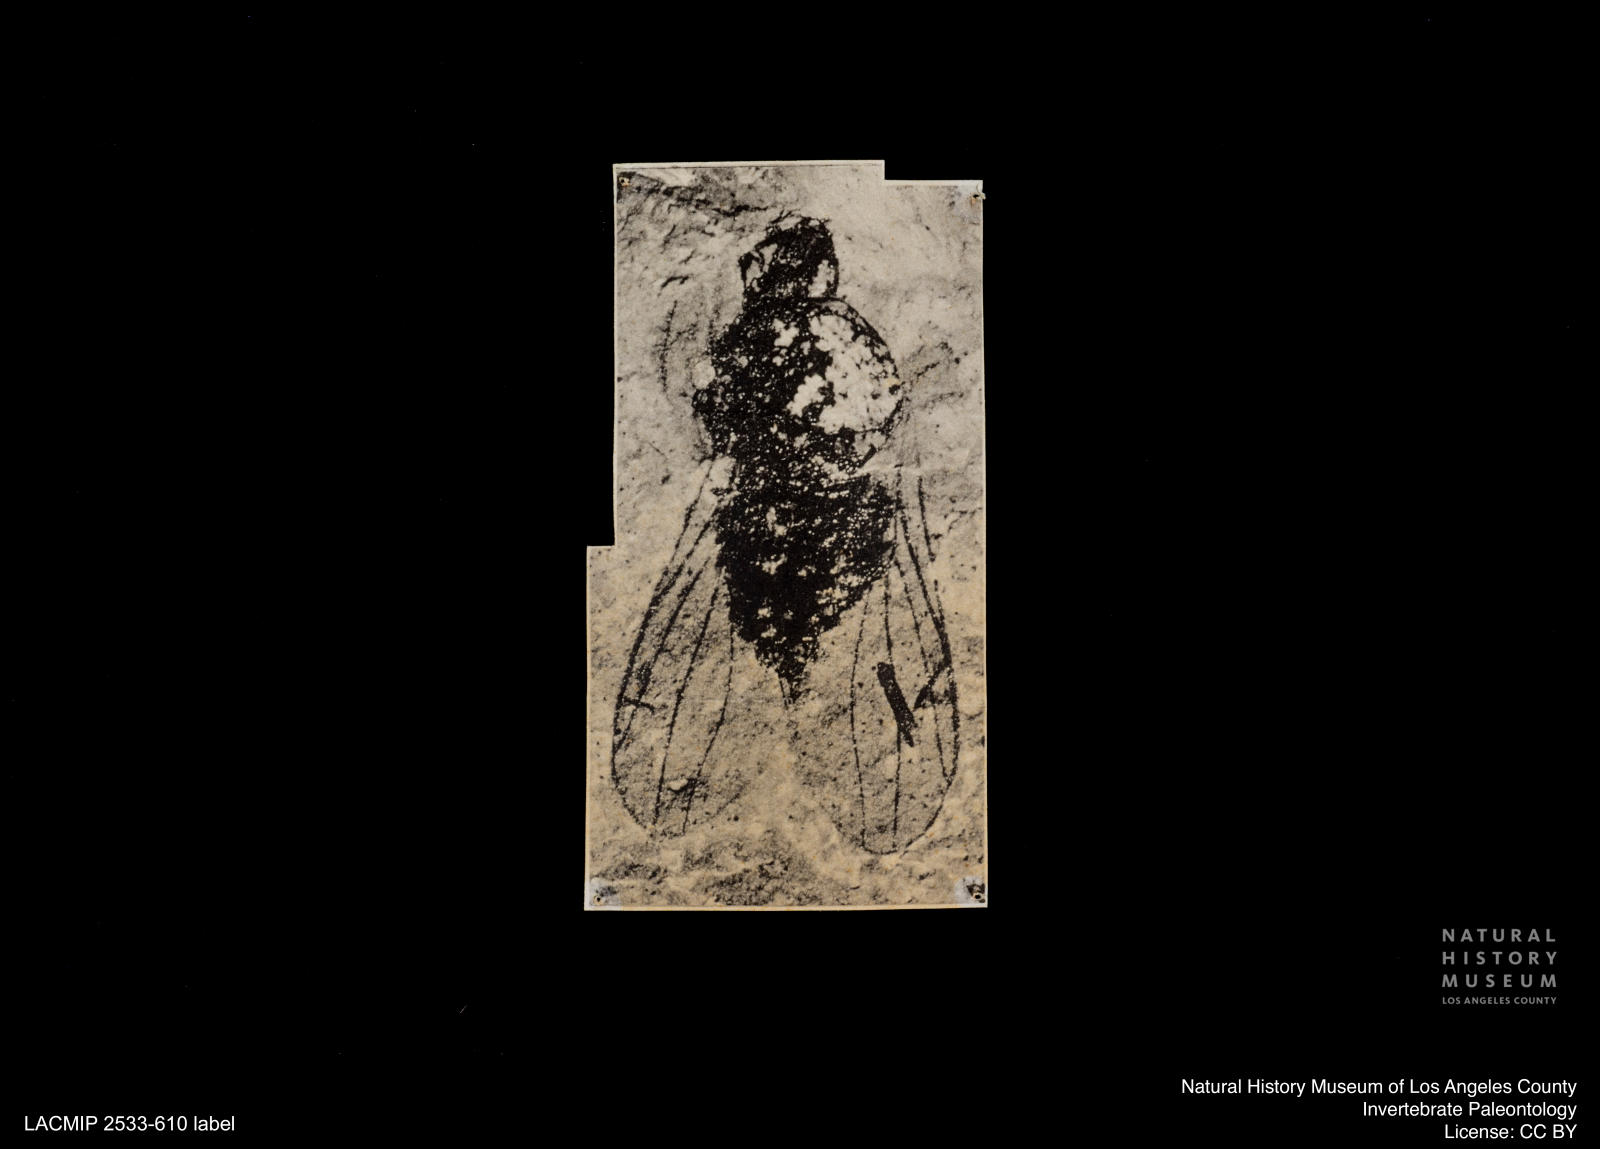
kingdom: Animalia
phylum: Arthropoda
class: Insecta
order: Diptera
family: Sepsidae
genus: Sepsis
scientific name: Sepsis bicolorata
